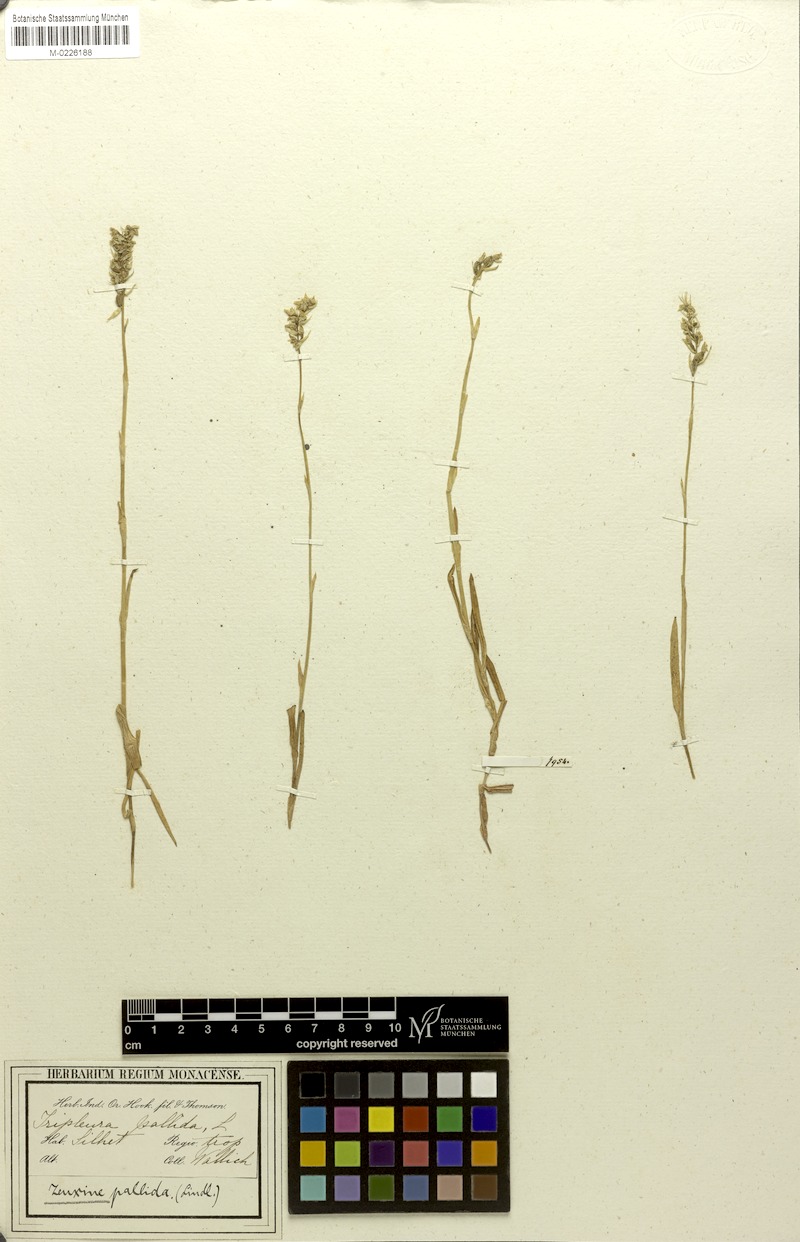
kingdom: Plantae
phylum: Tracheophyta
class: Liliopsida
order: Asparagales
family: Orchidaceae
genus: Zeuxine
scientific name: Zeuxine membranacea
